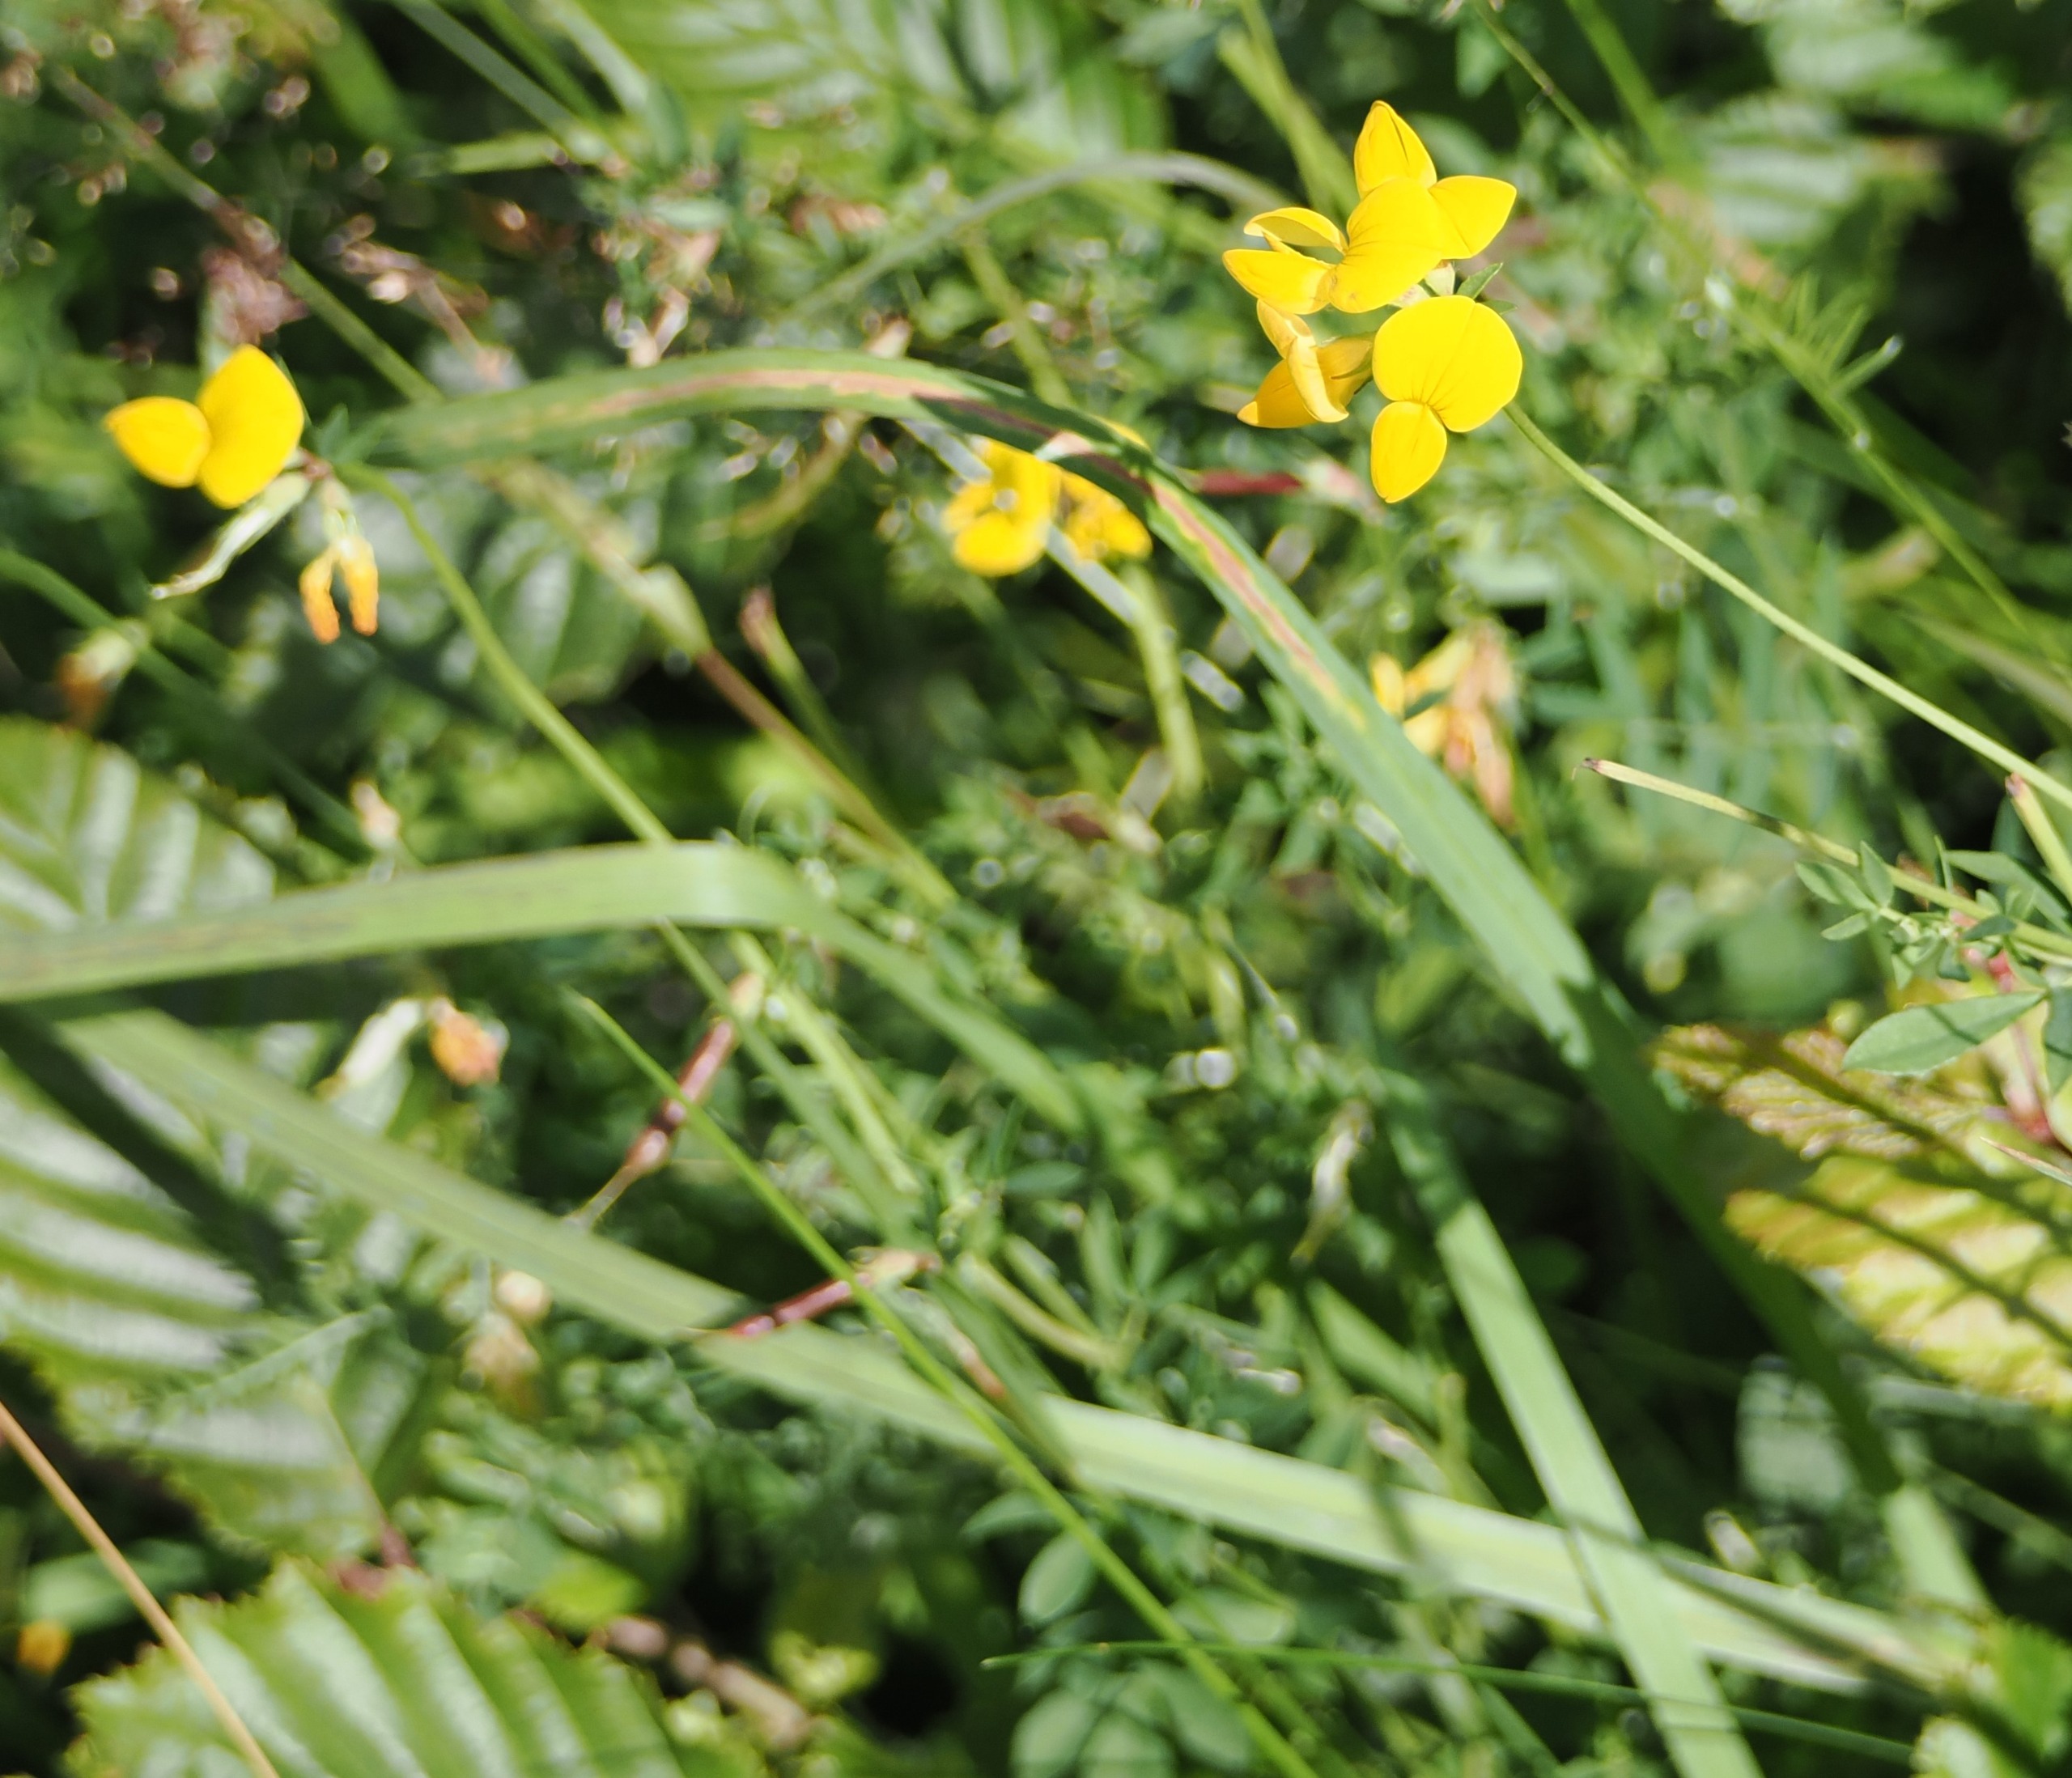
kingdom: Plantae
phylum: Tracheophyta
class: Magnoliopsida
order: Fabales
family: Fabaceae
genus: Lotus
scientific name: Lotus corniculatus
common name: Almindelig kællingetand
